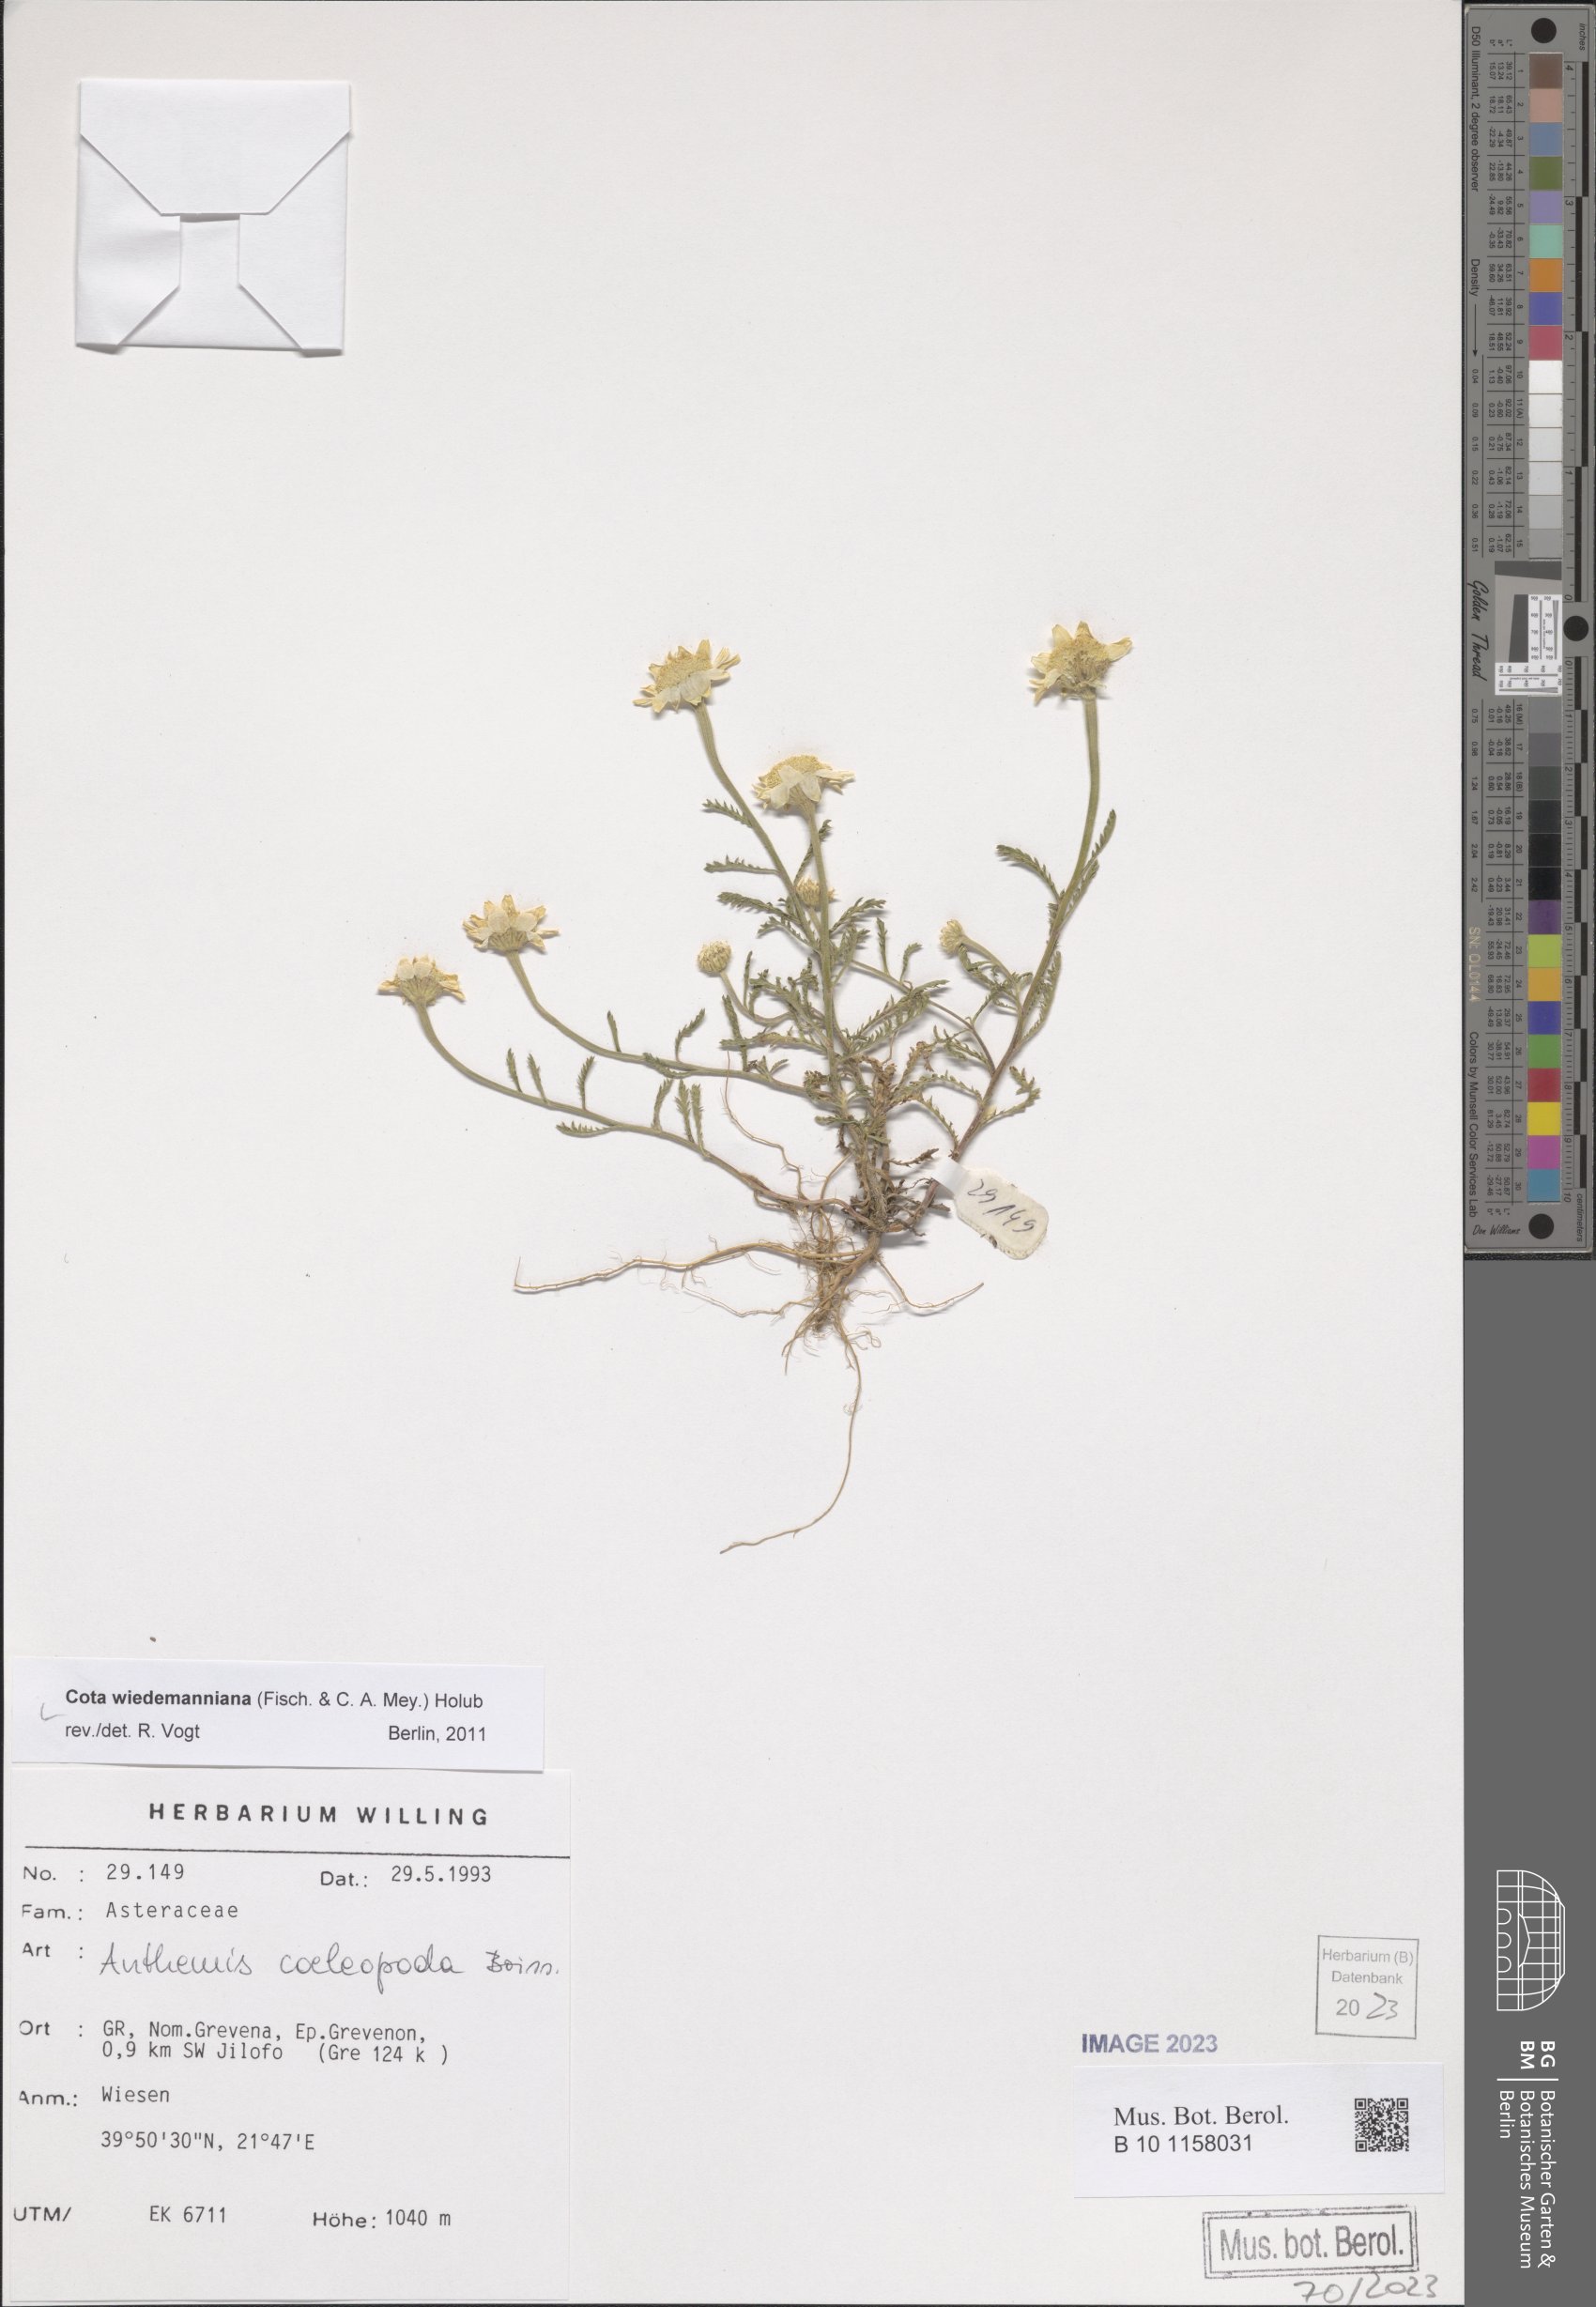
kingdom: Plantae
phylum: Tracheophyta
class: Magnoliopsida
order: Asterales
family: Asteraceae
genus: Cota
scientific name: Cota wiedemanniana
